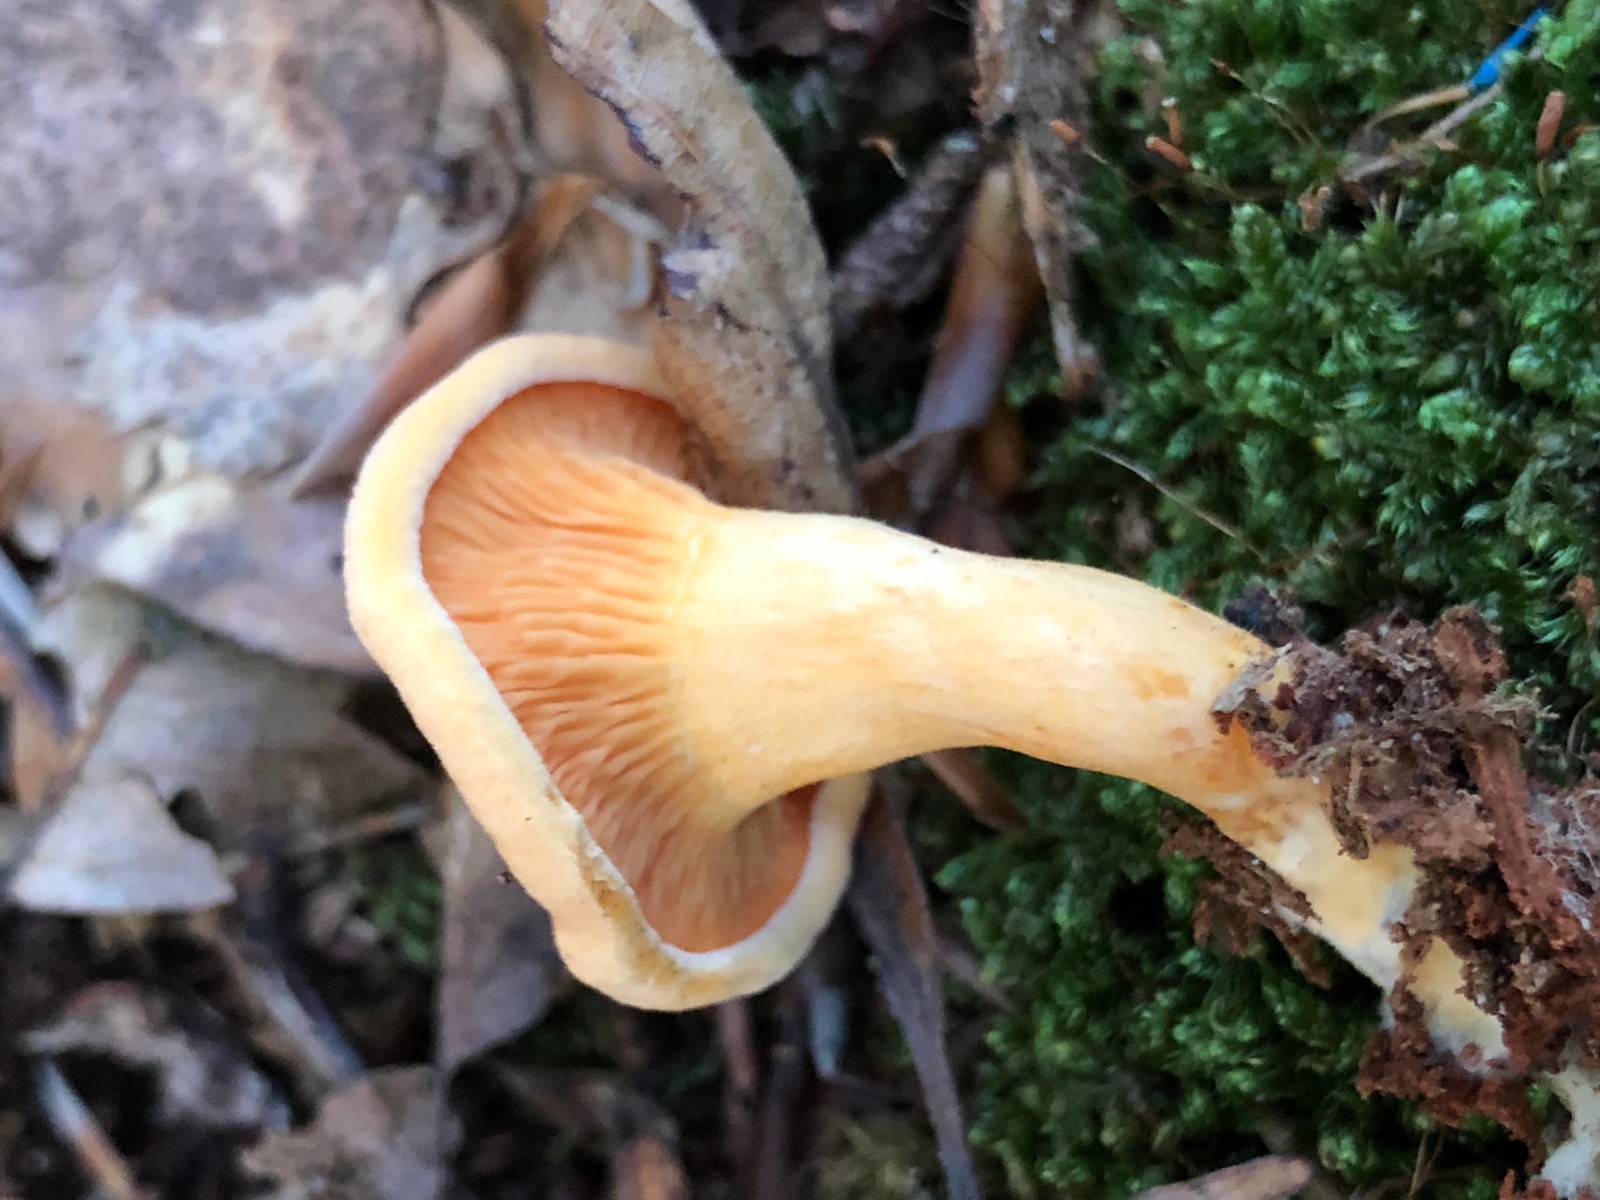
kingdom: Fungi
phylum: Basidiomycota
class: Agaricomycetes
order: Boletales
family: Hygrophoropsidaceae
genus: Hygrophoropsis
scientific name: Hygrophoropsis aurantiaca
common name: almindelig orangekantarel
